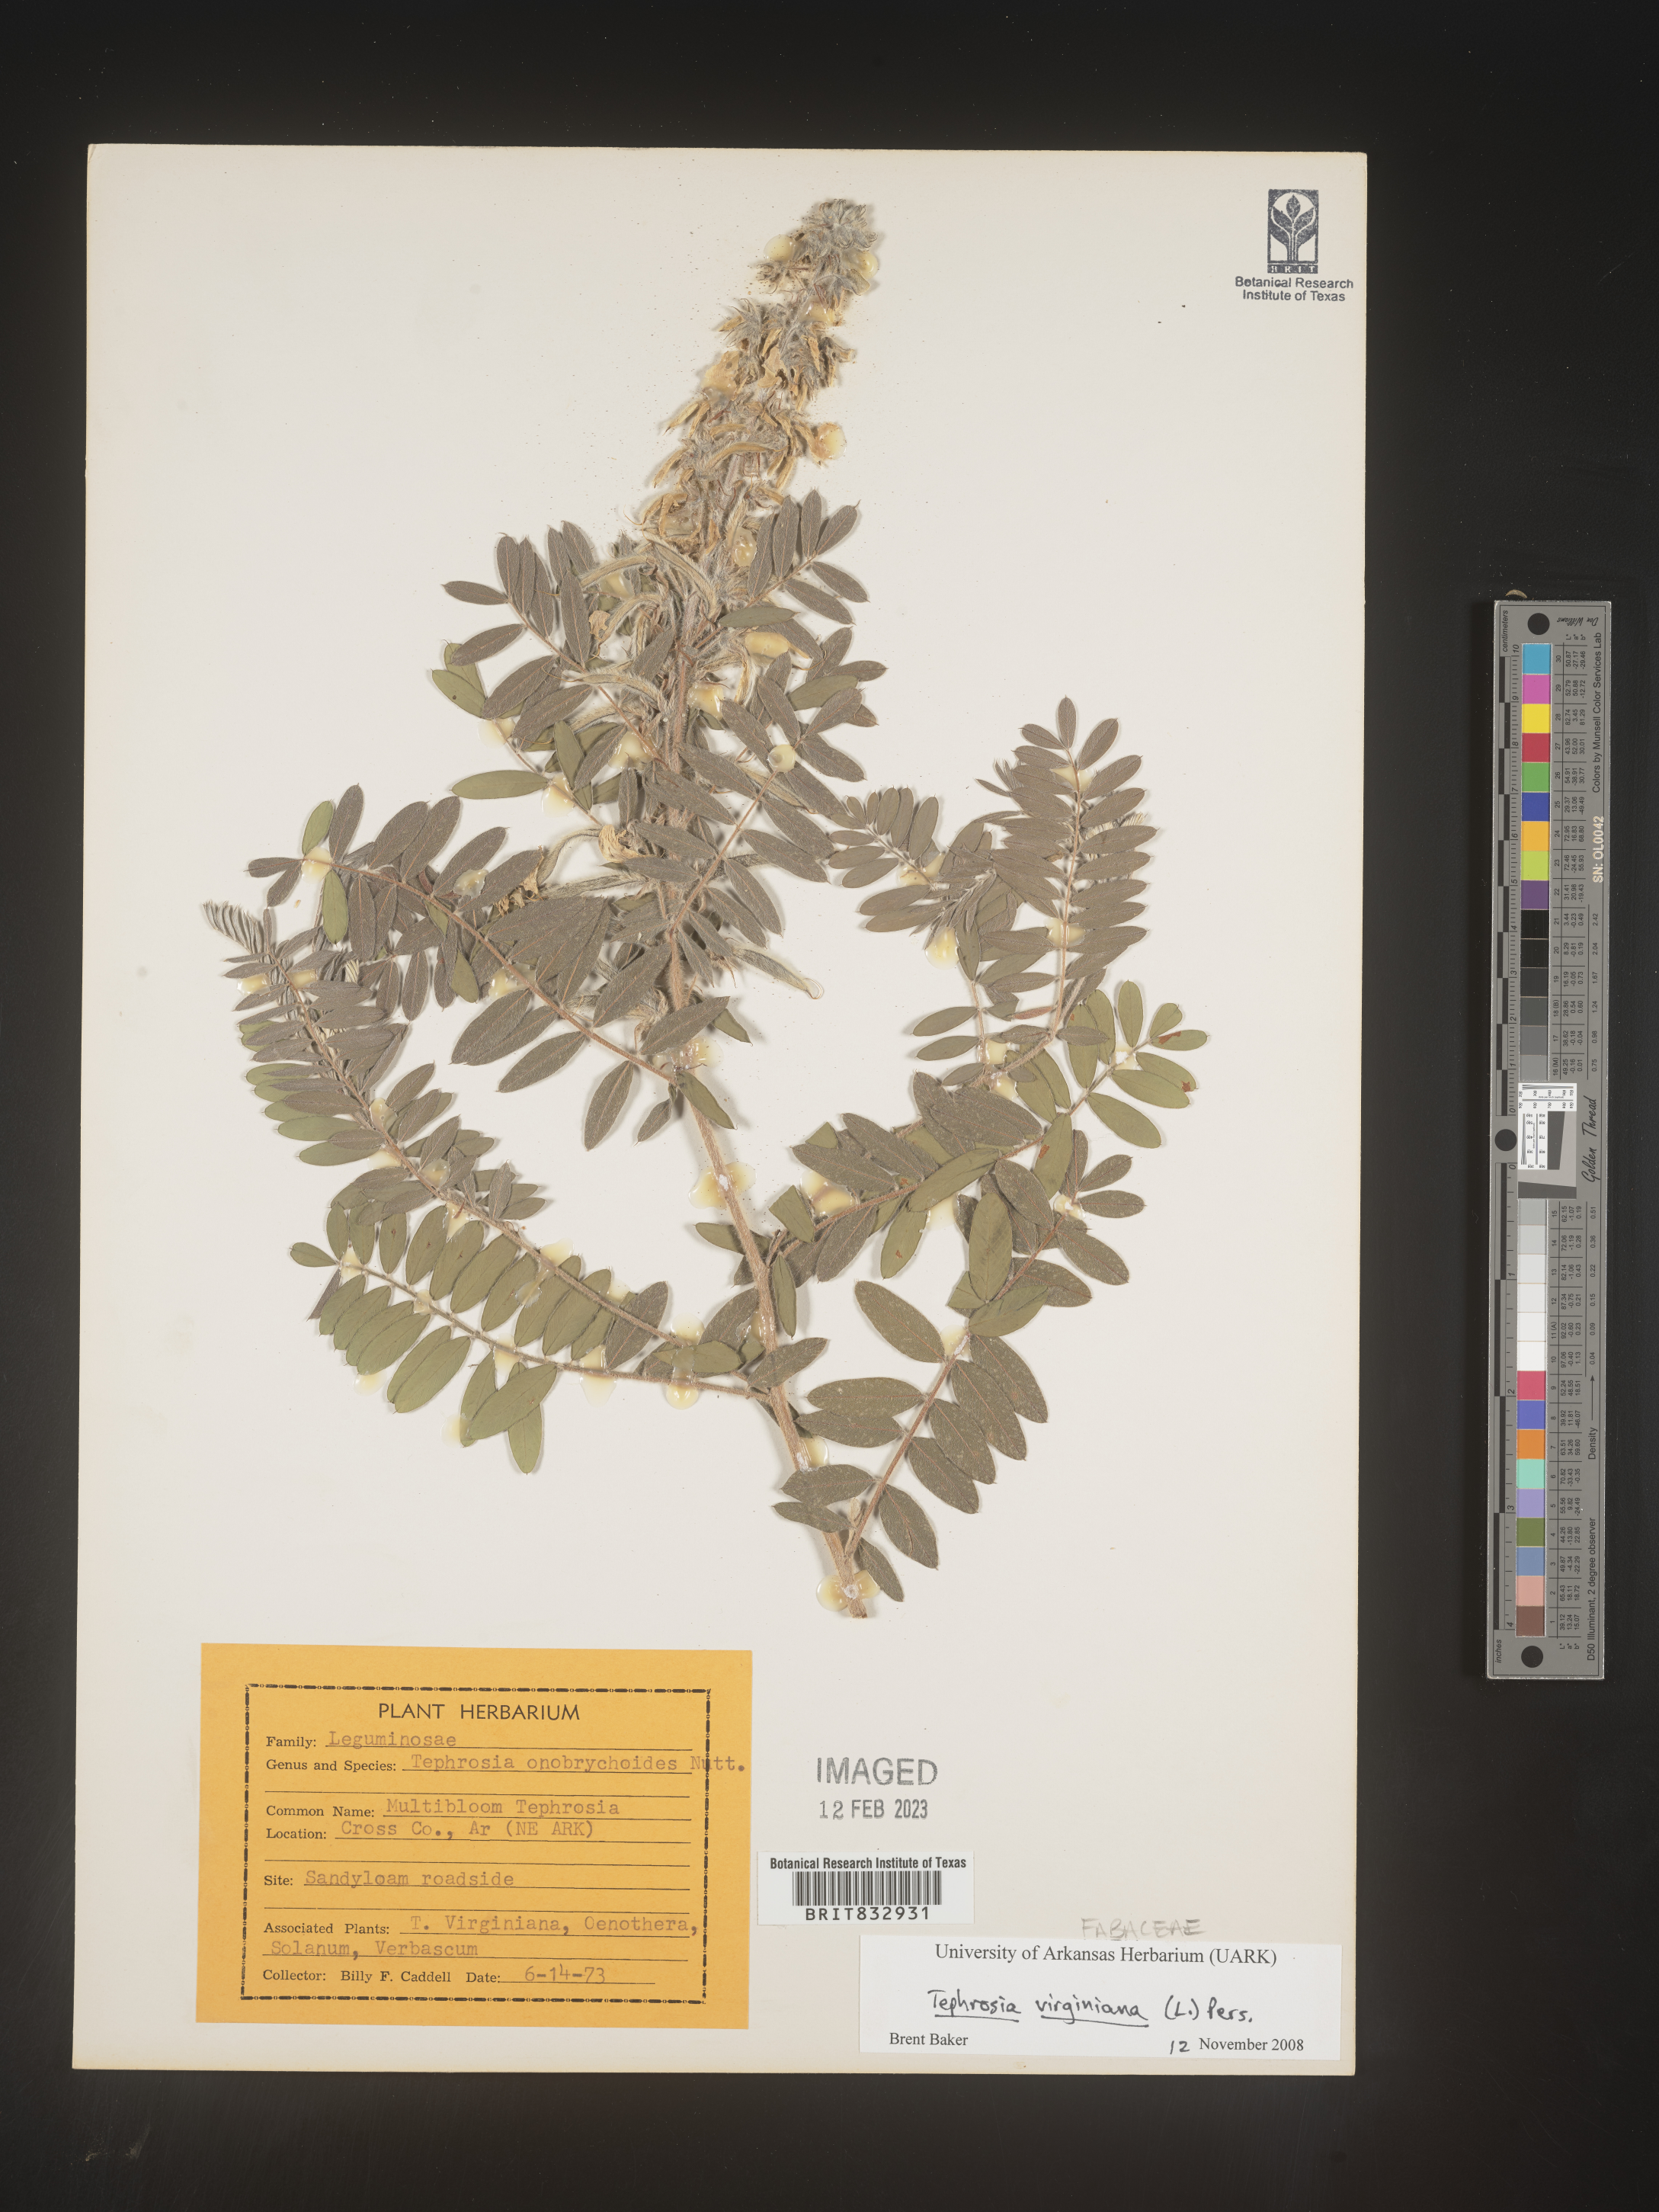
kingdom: Plantae
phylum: Tracheophyta
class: Magnoliopsida
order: Fabales
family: Fabaceae
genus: Tephrosia
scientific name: Tephrosia virginiana
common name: Rabbit-pea
